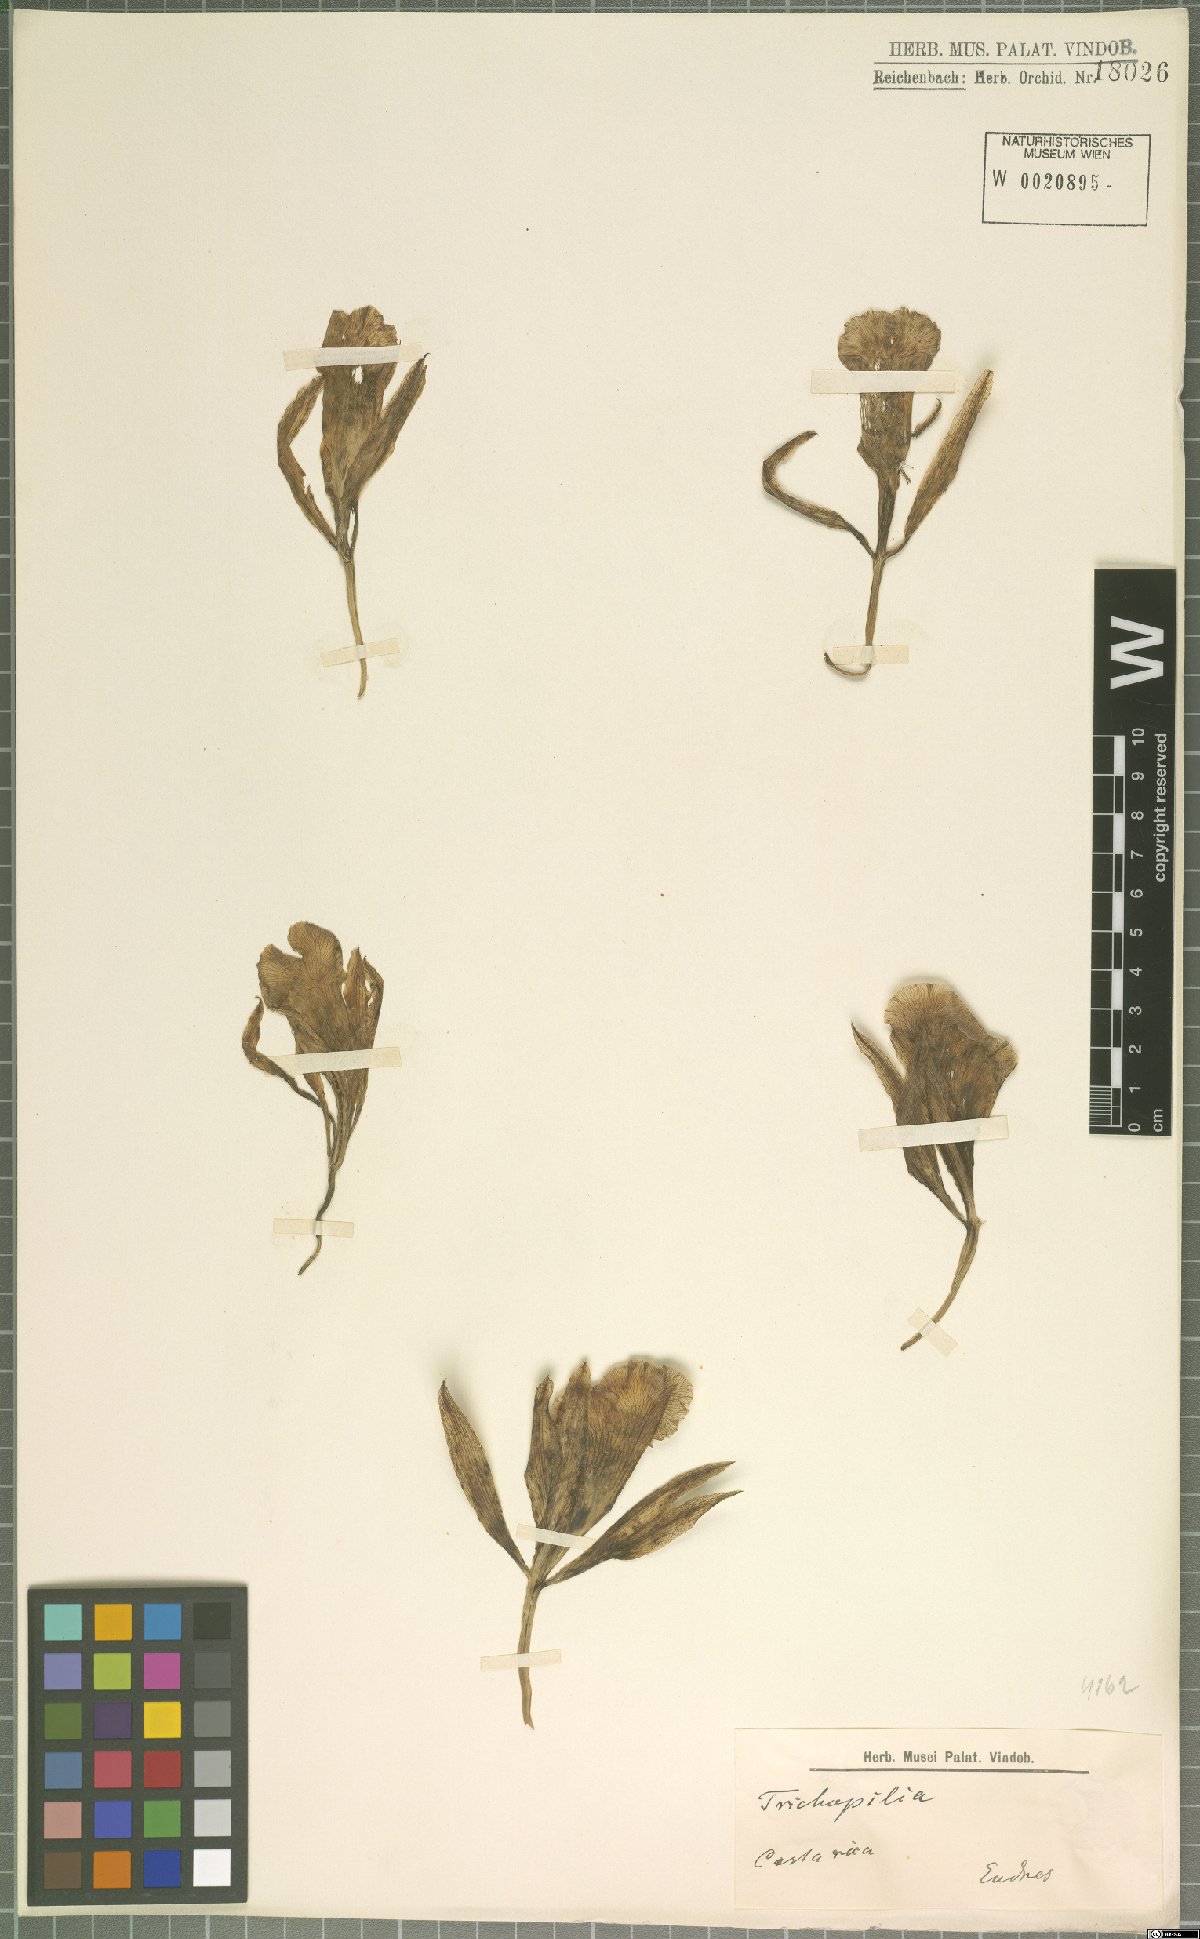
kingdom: Plantae
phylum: Tracheophyta
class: Liliopsida
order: Asparagales
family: Orchidaceae
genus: Trichopilia
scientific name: Trichopilia
